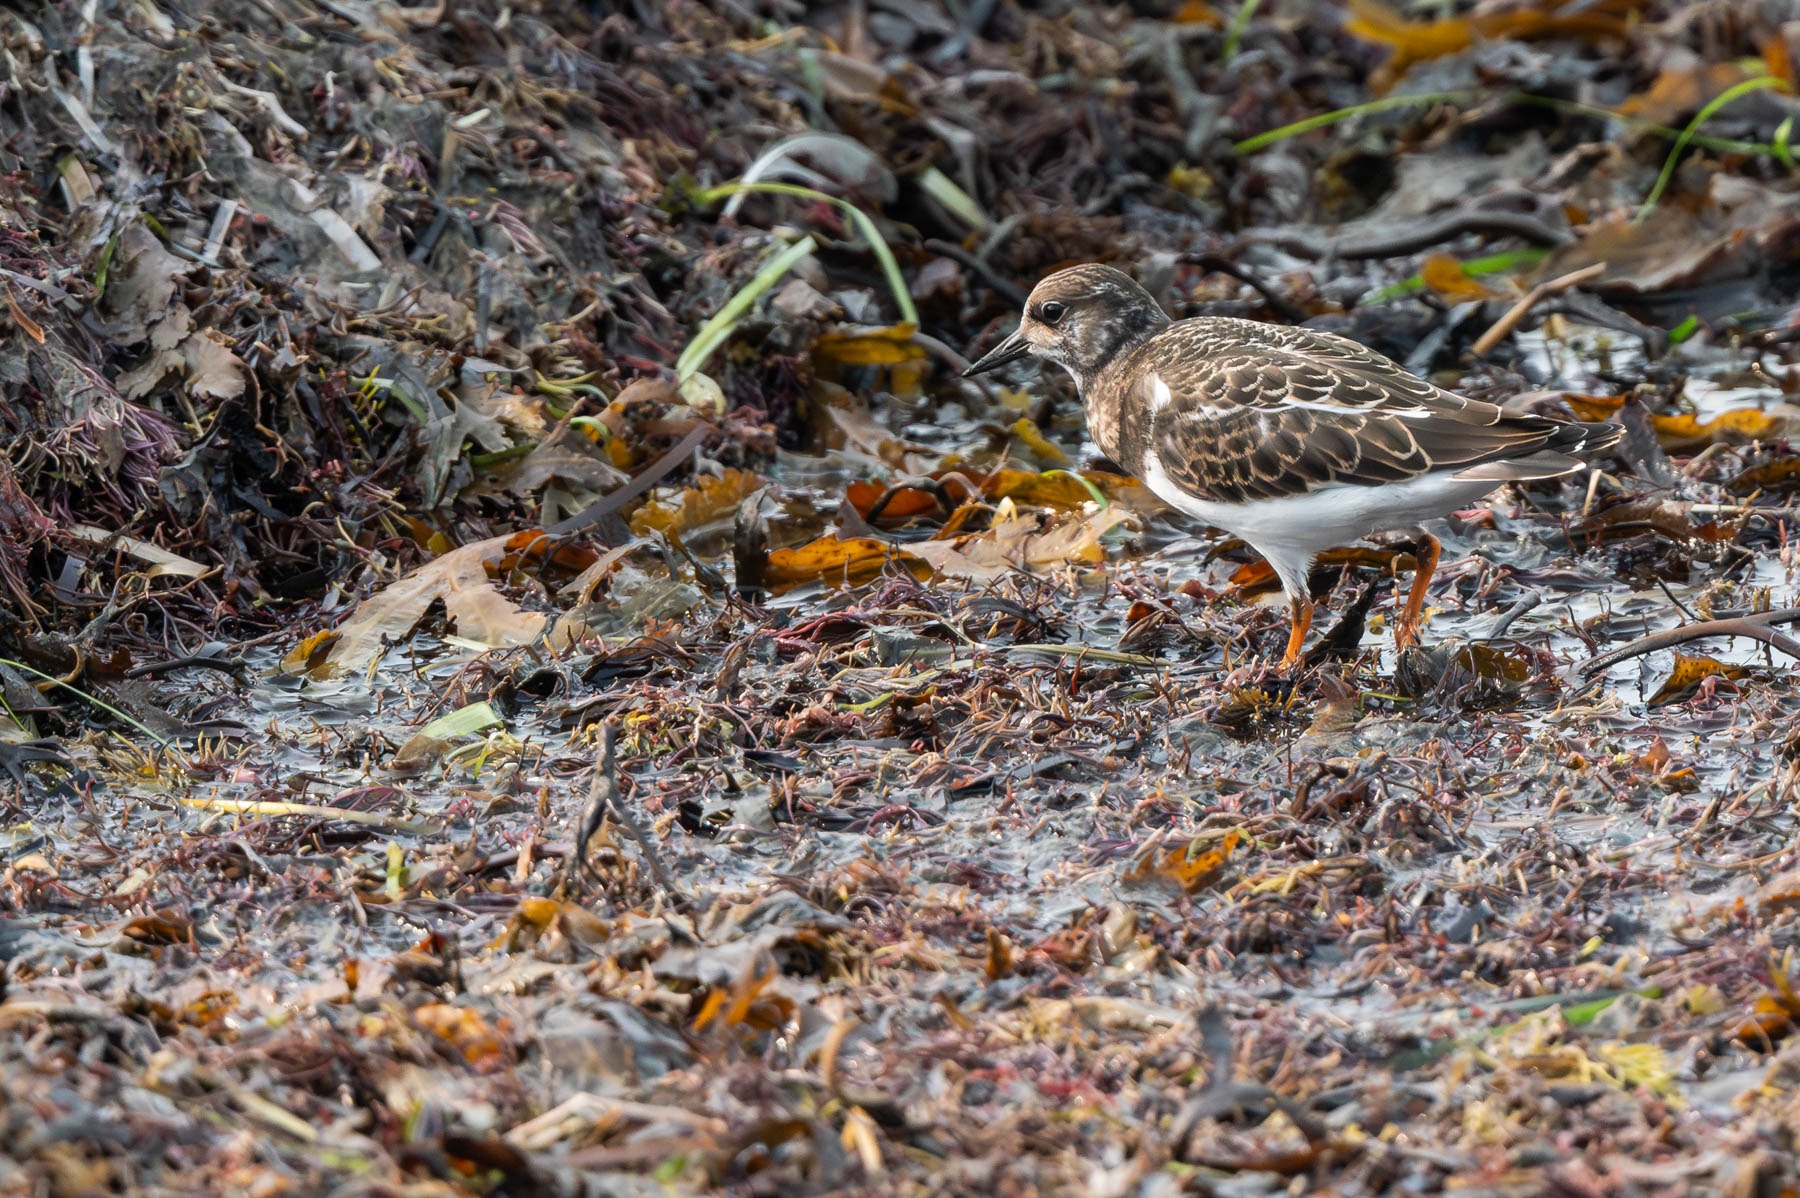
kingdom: Animalia
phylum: Chordata
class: Aves
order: Charadriiformes
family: Scolopacidae
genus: Arenaria
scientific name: Arenaria interpres
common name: Stenvender
